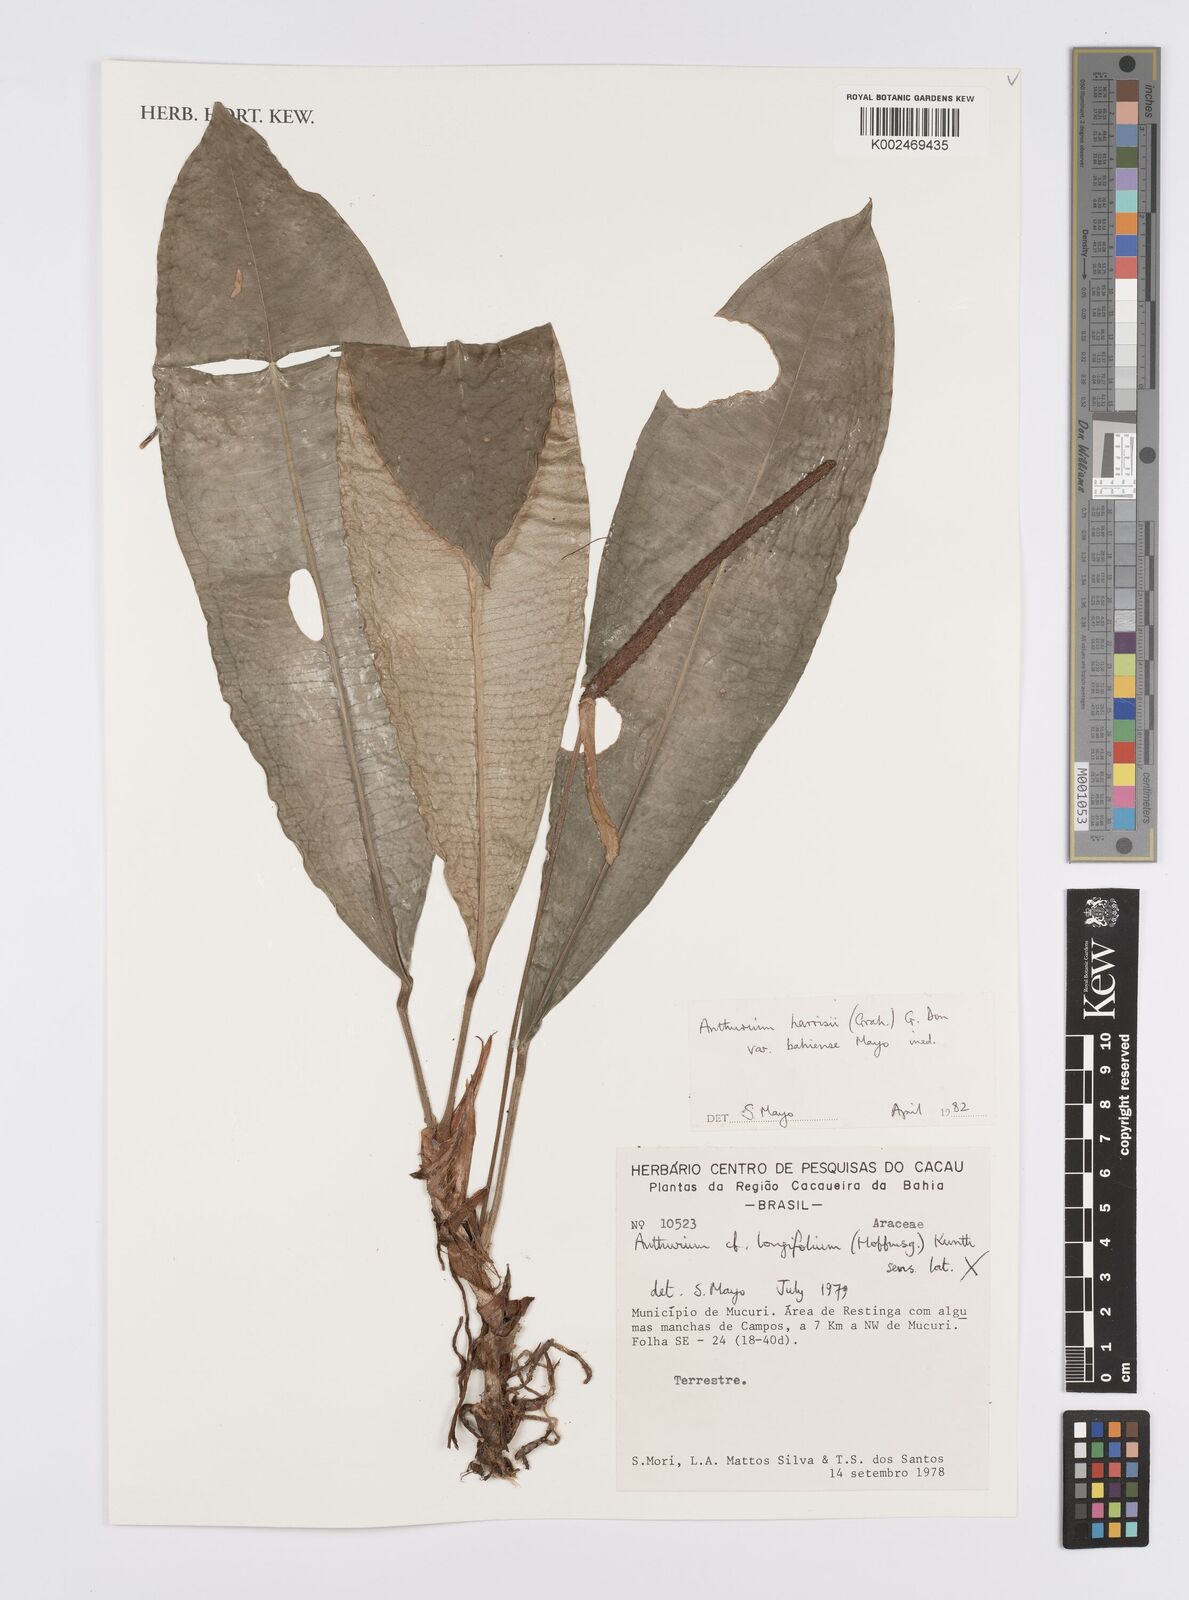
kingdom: Plantae
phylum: Tracheophyta
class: Liliopsida
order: Alismatales
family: Araceae
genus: Anthurium
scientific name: Anthurium harrisii
